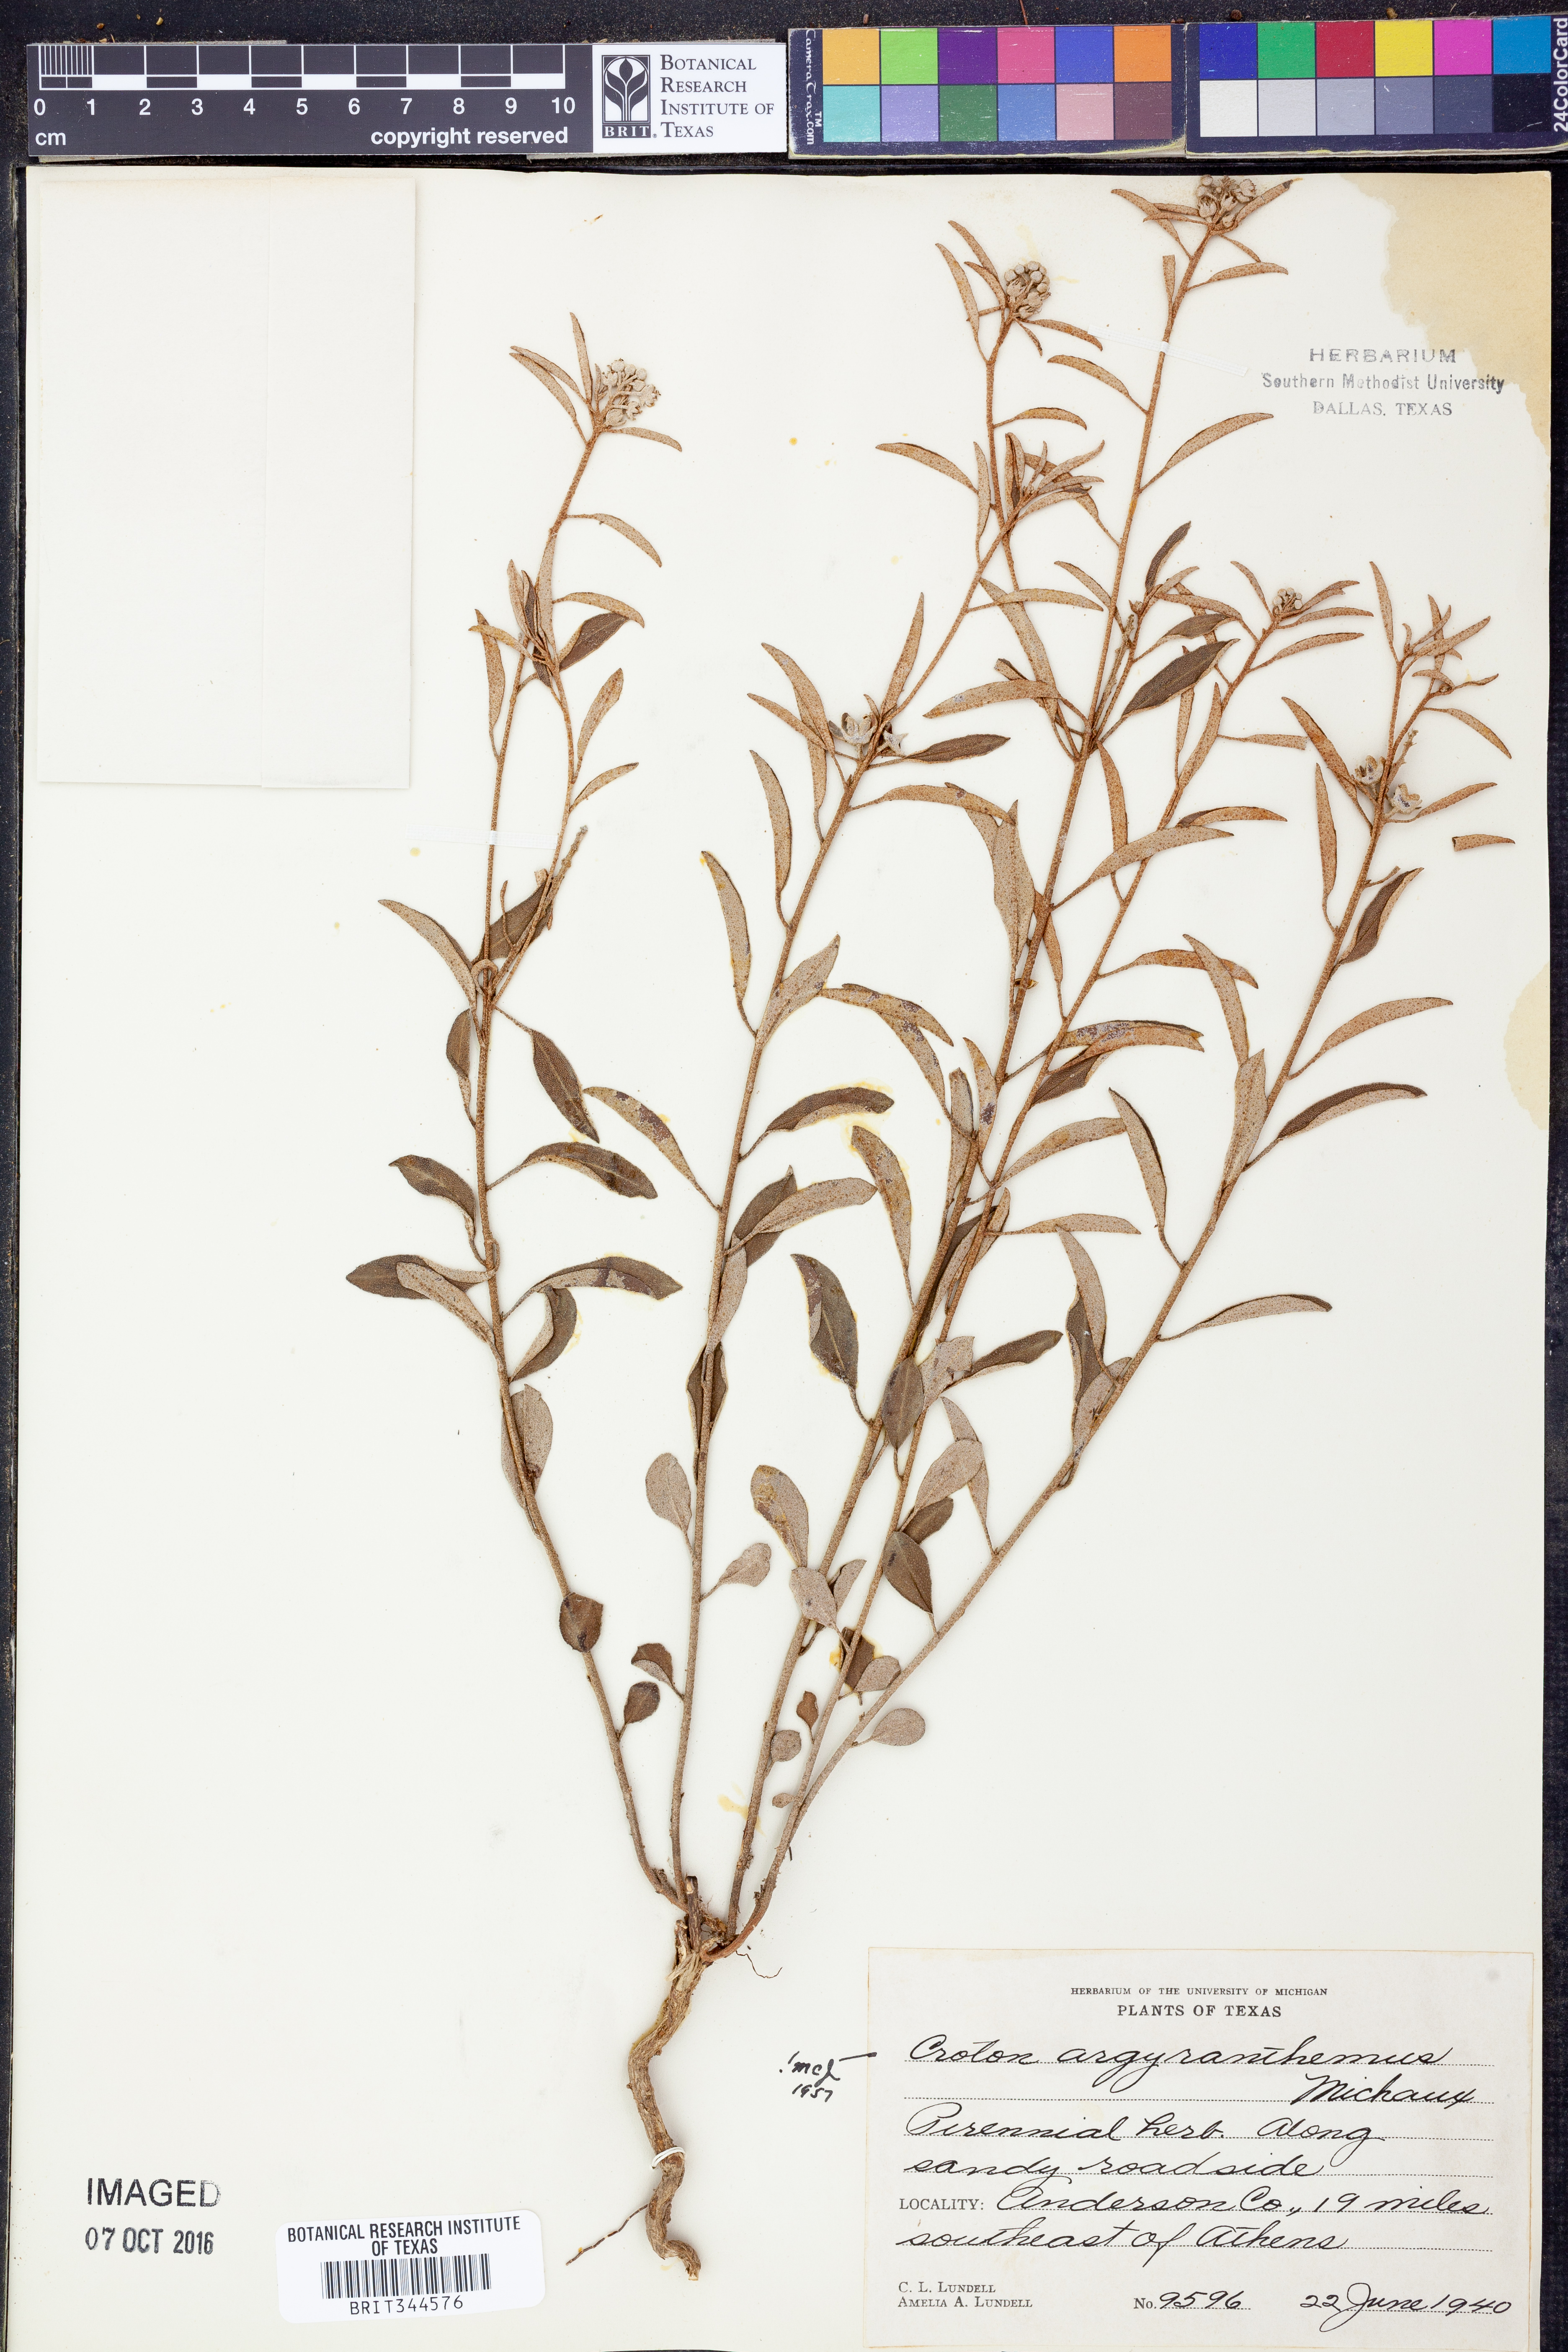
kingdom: Plantae
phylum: Tracheophyta
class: Magnoliopsida
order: Malpighiales
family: Euphorbiaceae
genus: Croton
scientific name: Croton argyranthemus
